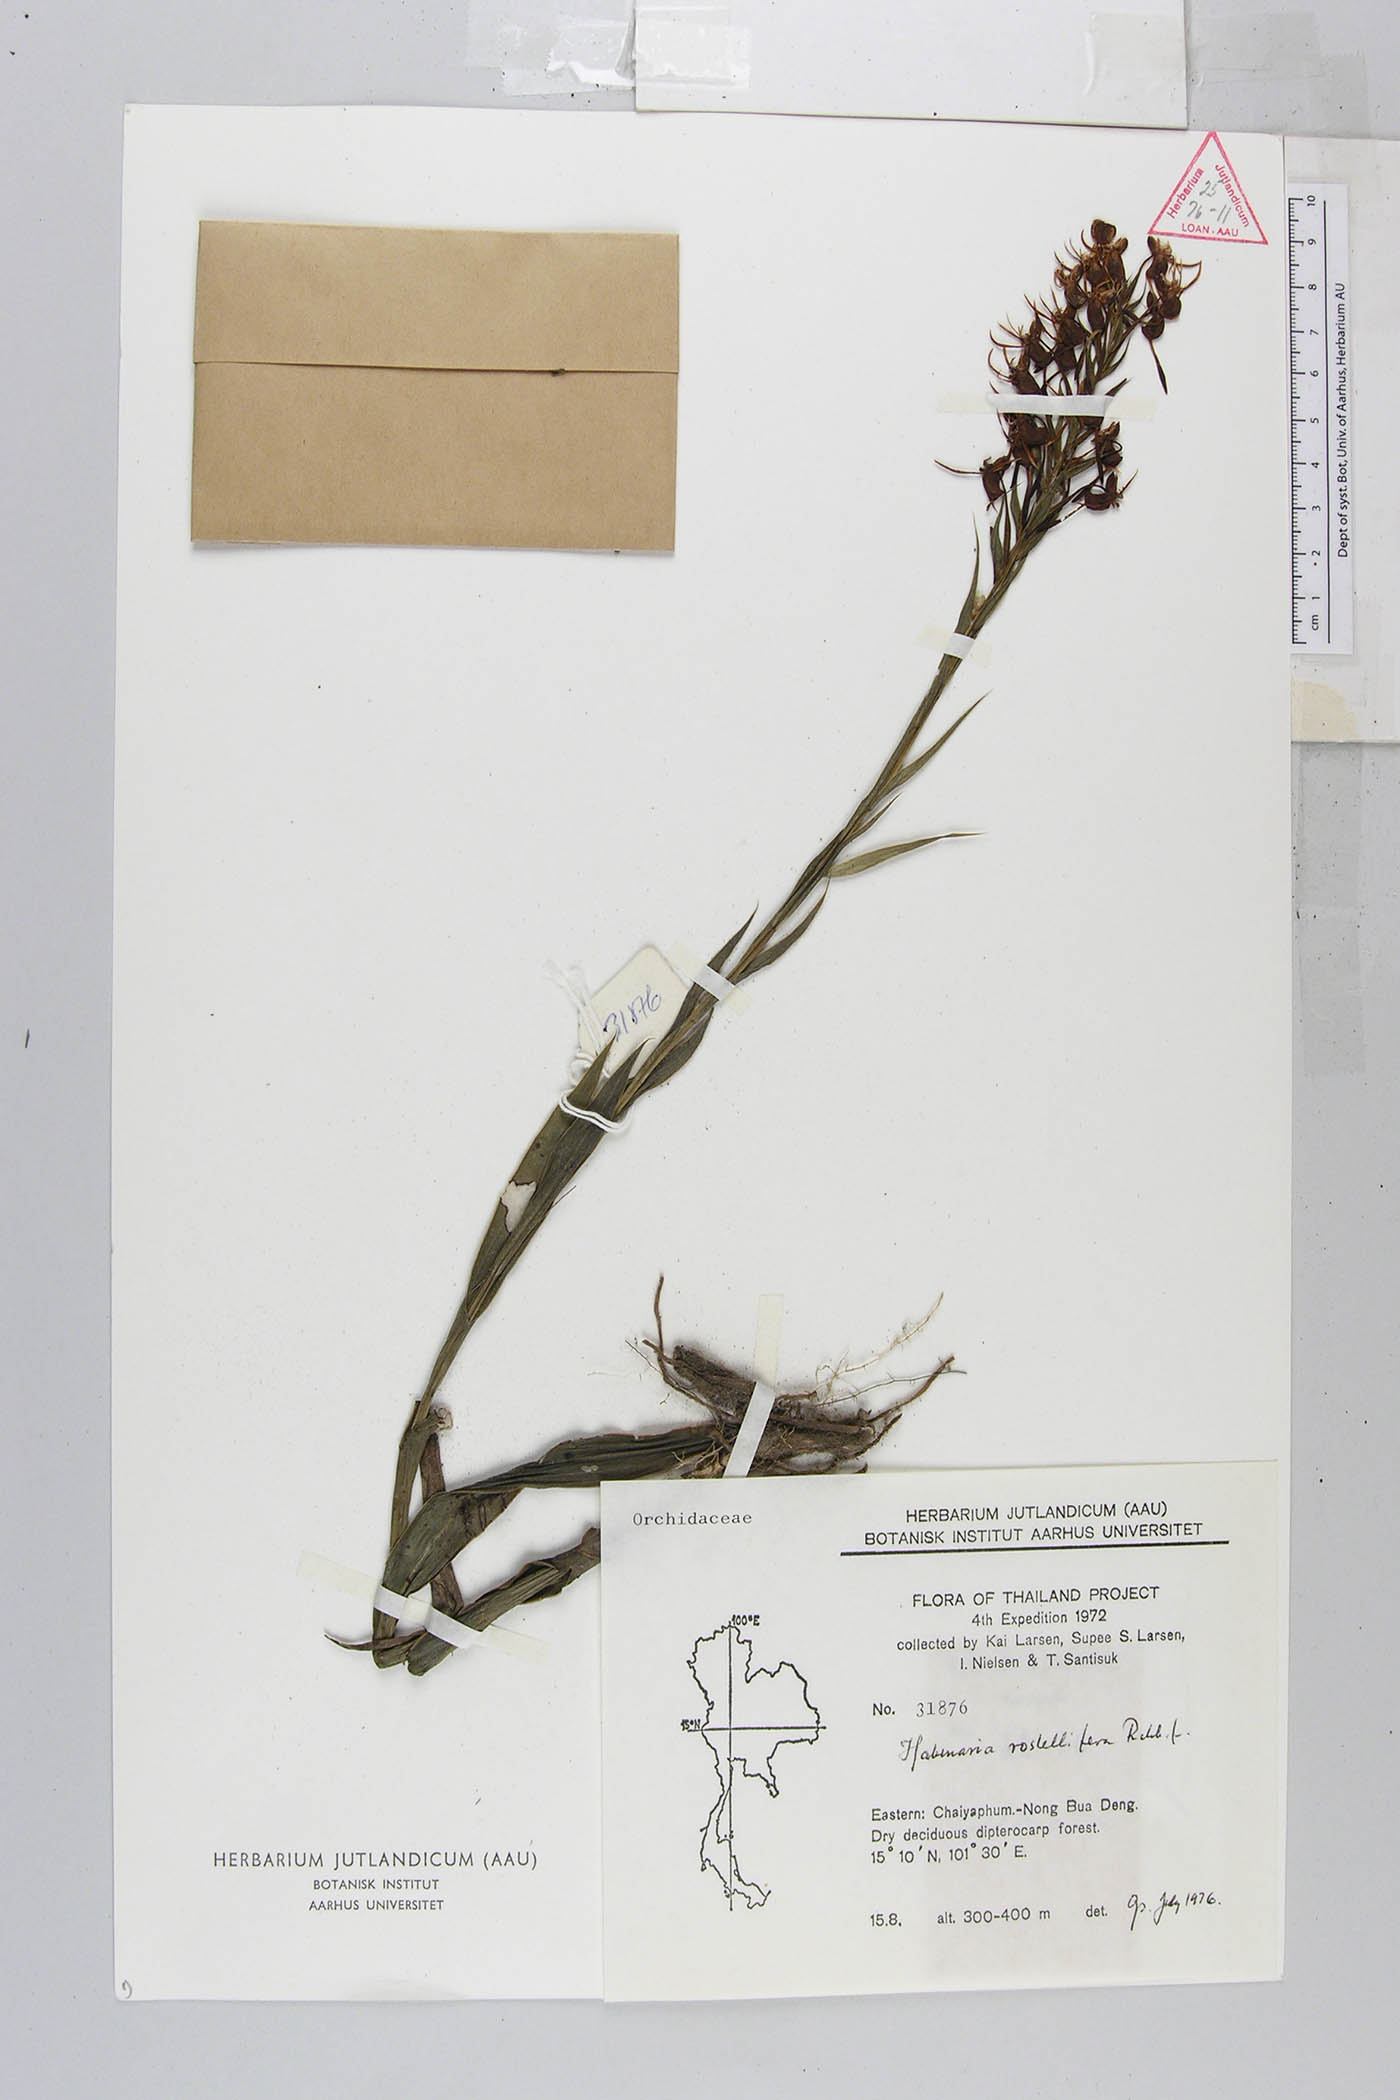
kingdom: Plantae
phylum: Tracheophyta
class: Liliopsida
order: Asparagales
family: Orchidaceae
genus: Habenaria
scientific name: Habenaria rostellifera
